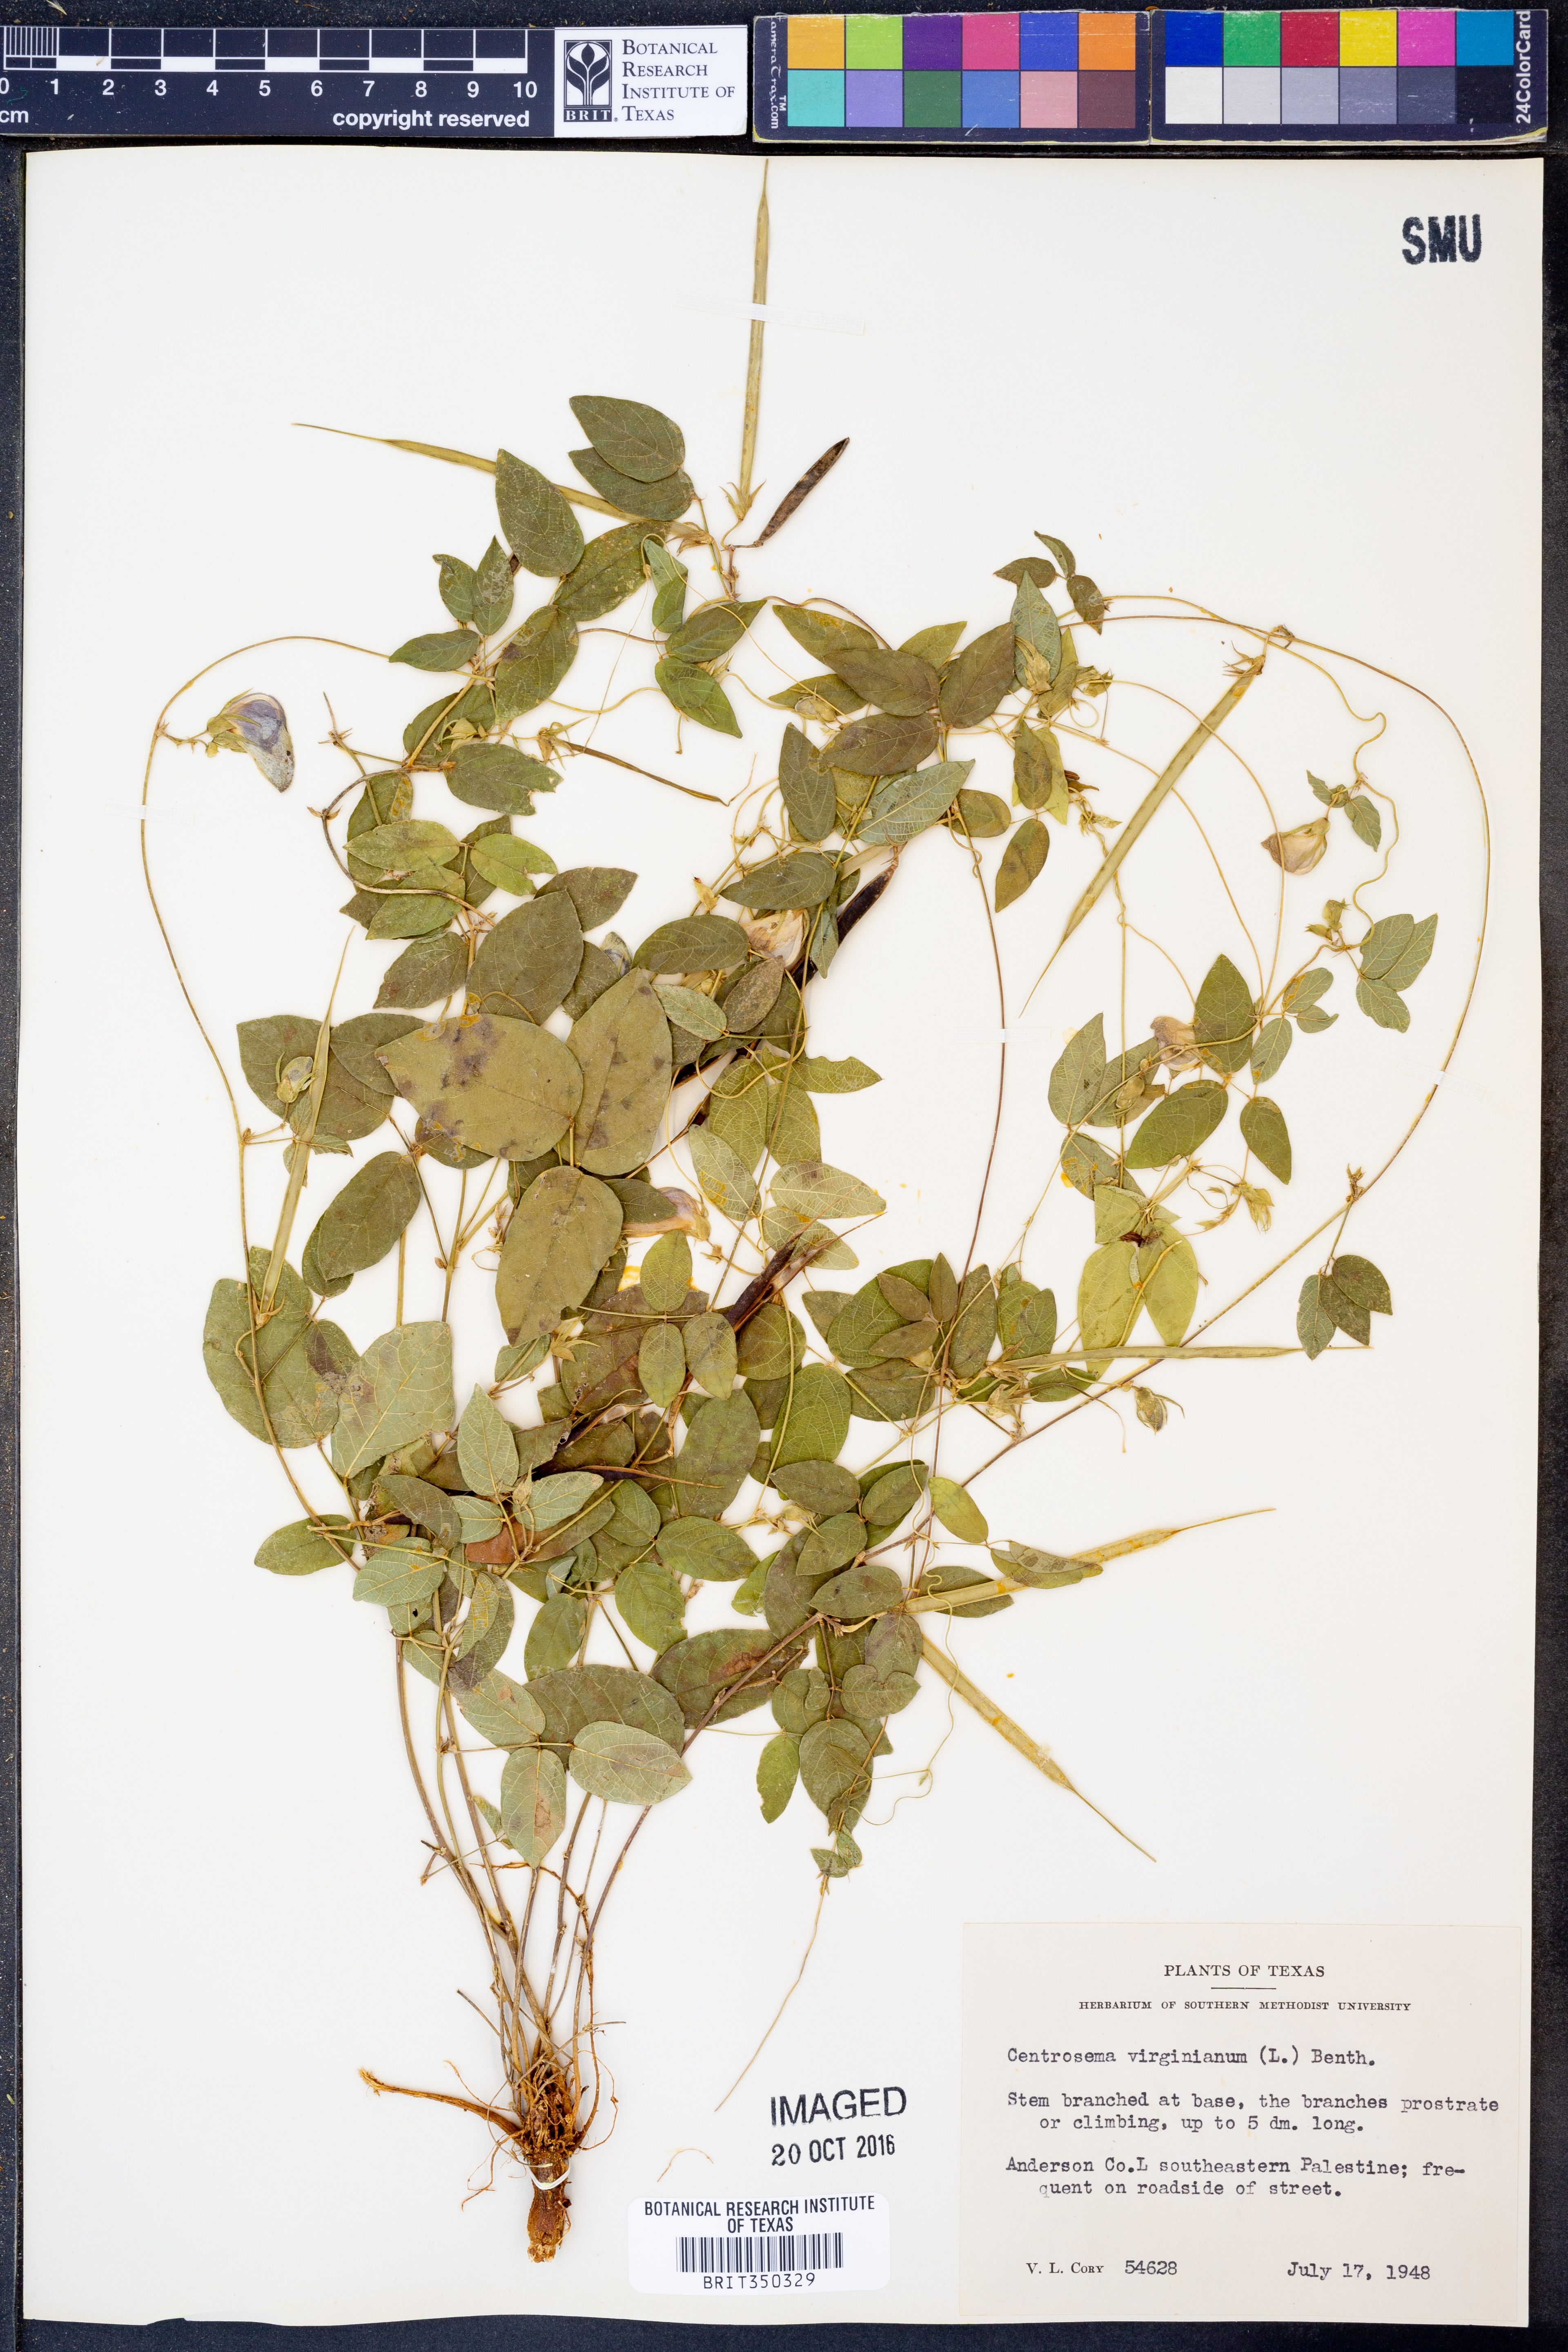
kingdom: Plantae
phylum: Tracheophyta
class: Magnoliopsida
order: Fabales
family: Fabaceae
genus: Centrosema
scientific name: Centrosema virginianum
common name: Butterfly-pea
